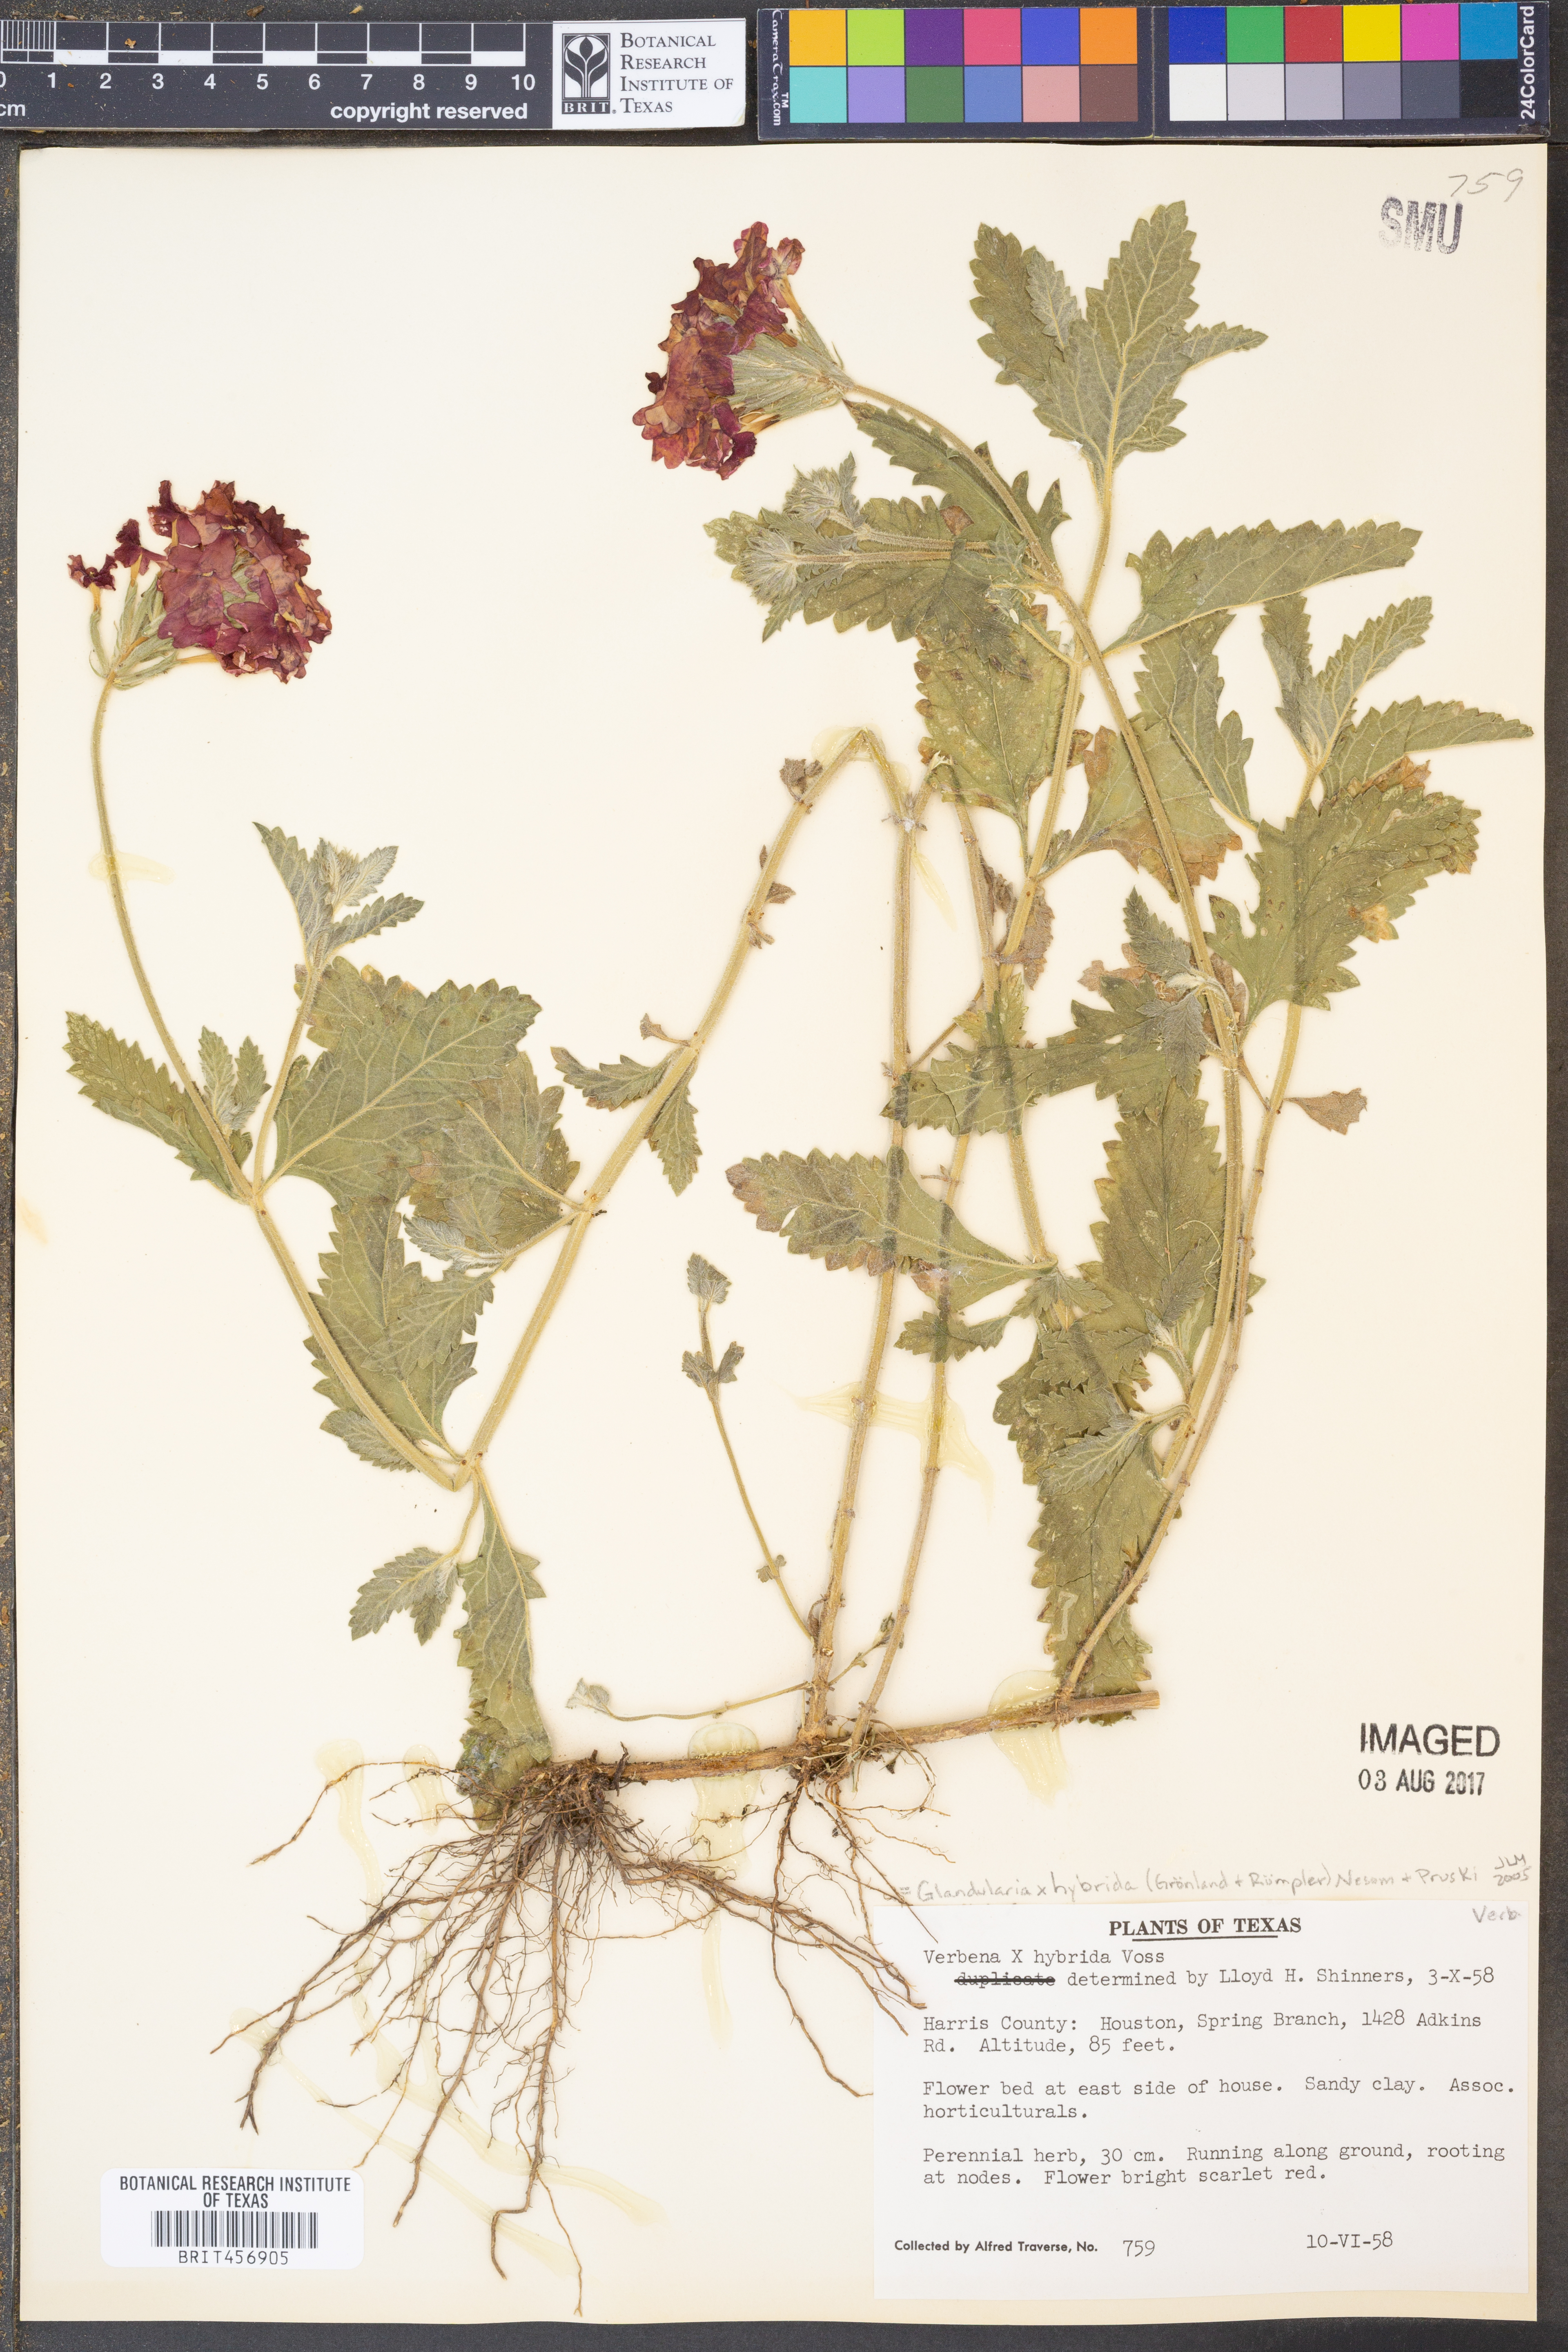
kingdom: Plantae
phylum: Tracheophyta
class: Magnoliopsida
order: Lamiales
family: Verbenaceae
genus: Verbena
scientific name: Verbena hybrida
